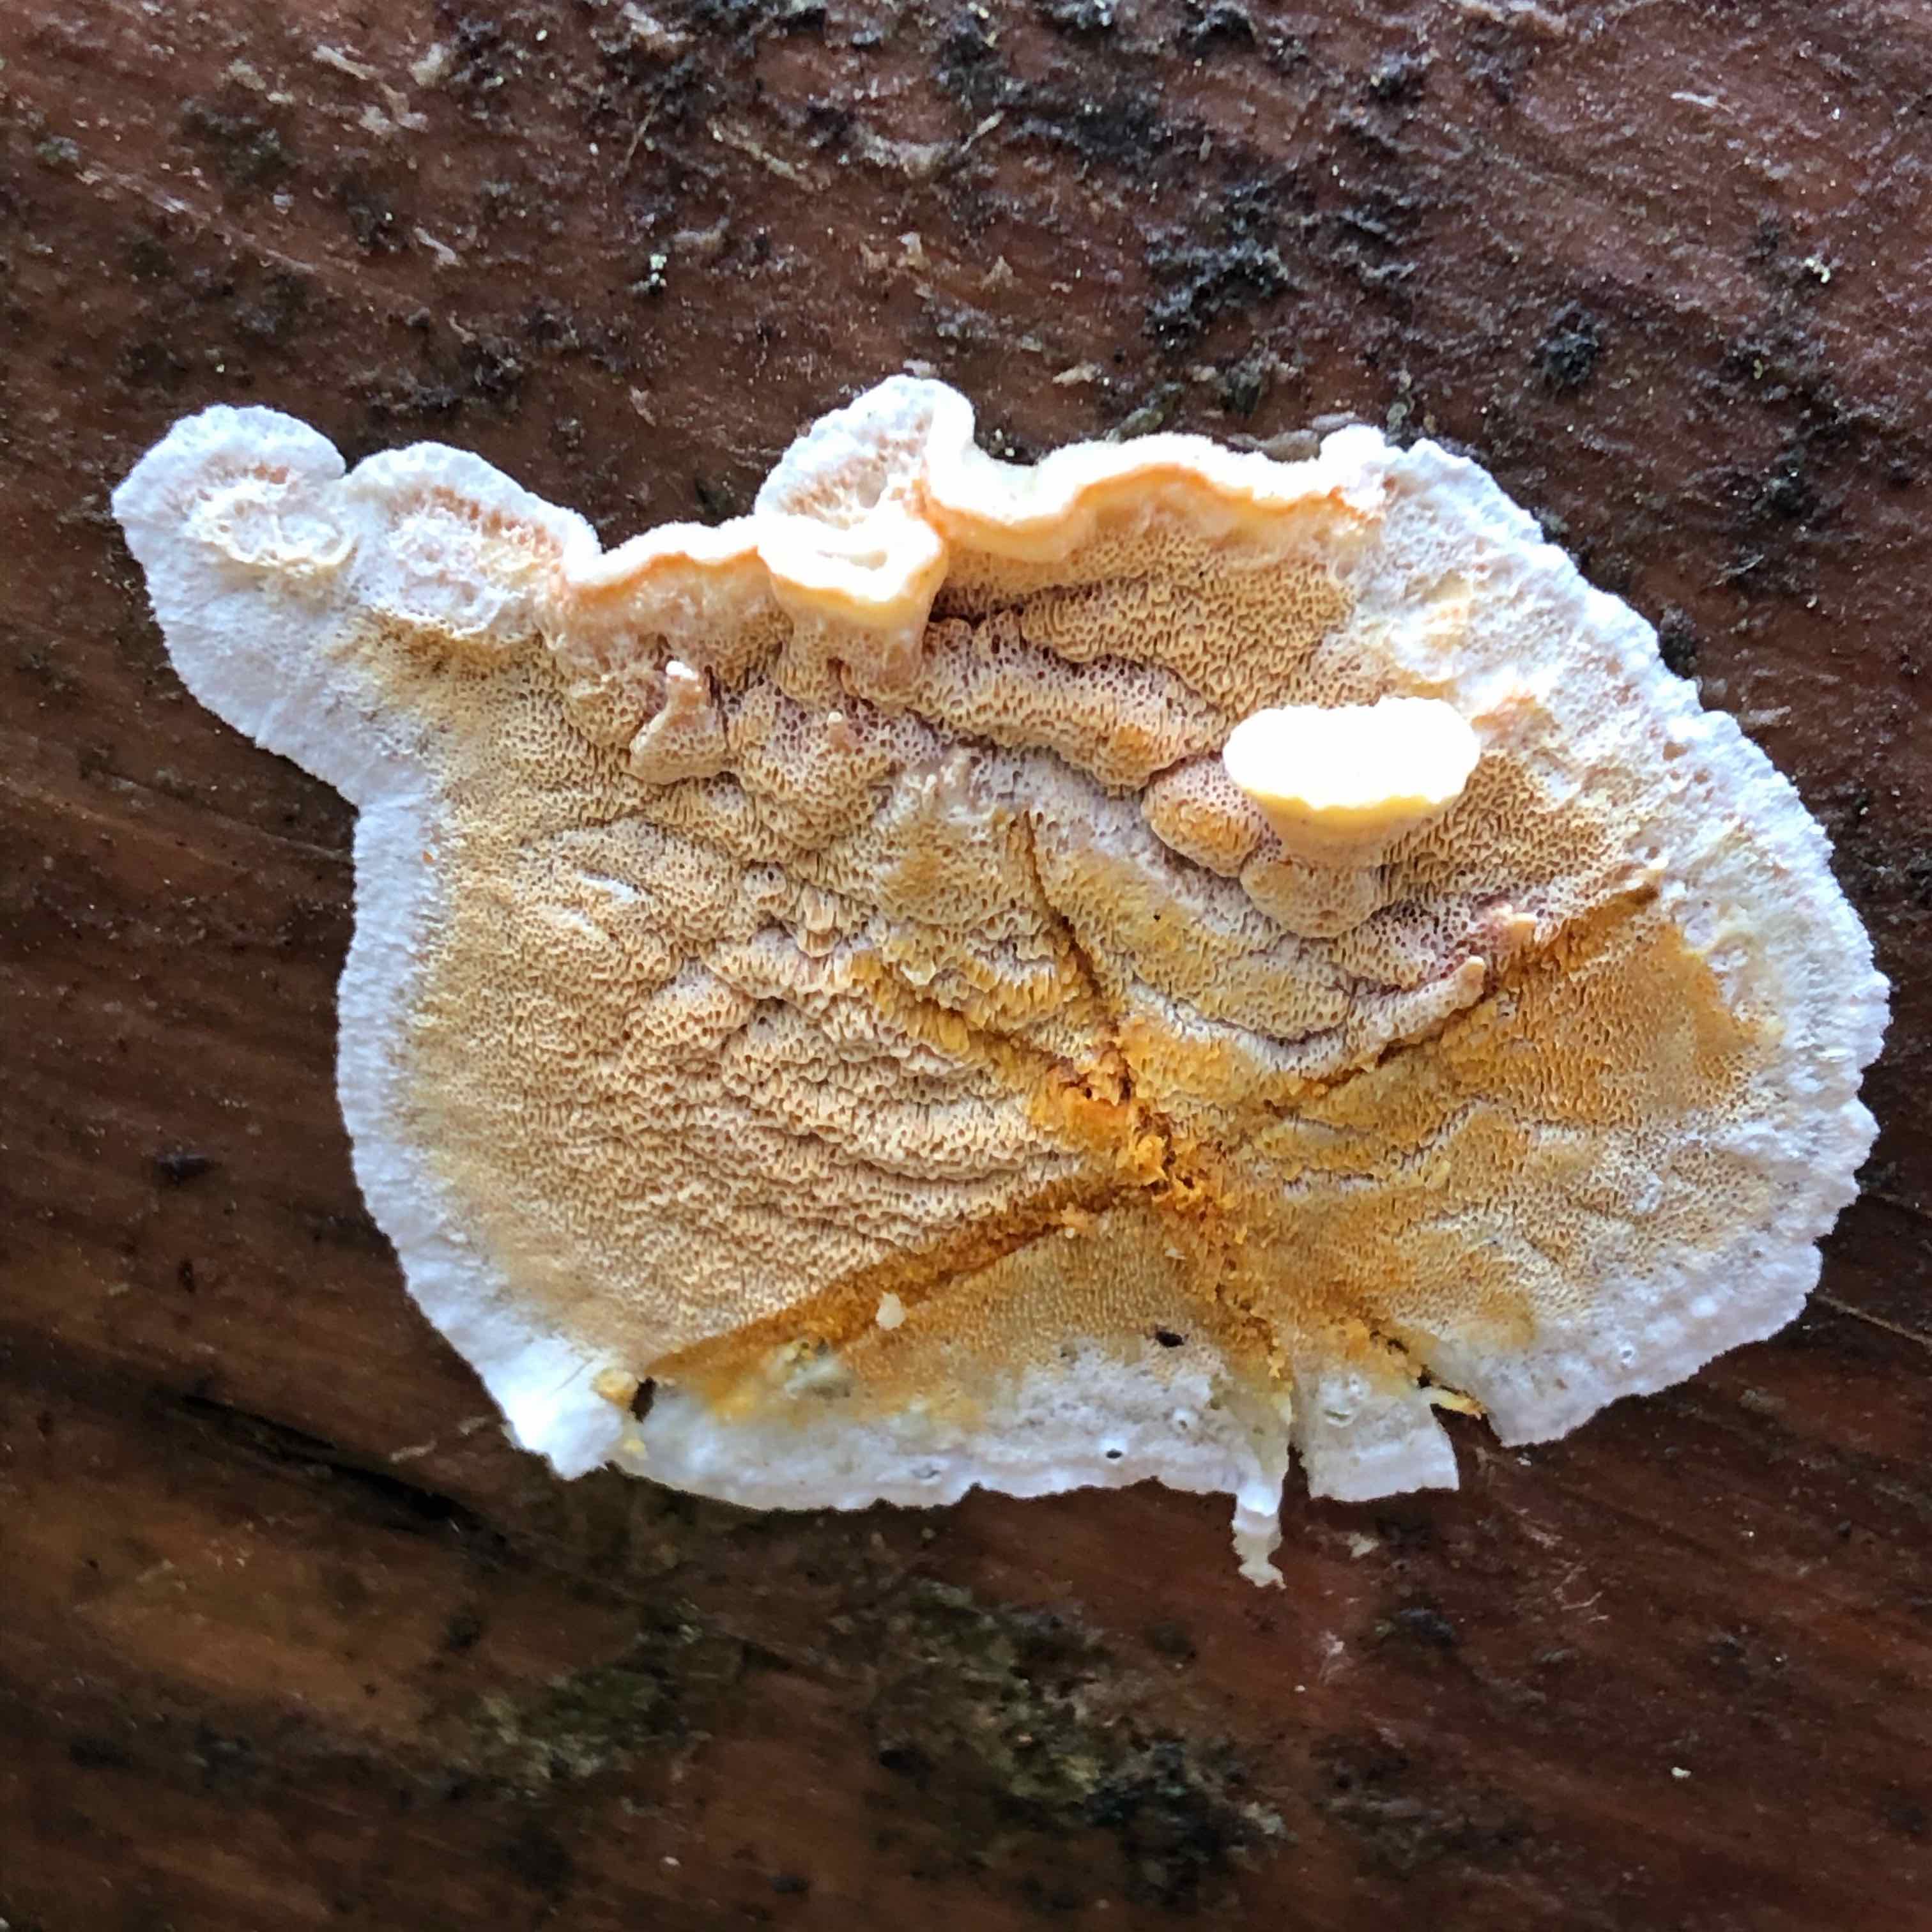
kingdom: Fungi
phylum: Basidiomycota
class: Agaricomycetes
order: Polyporales
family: Incrustoporiaceae
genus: Skeletocutis
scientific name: Skeletocutis amorpha
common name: orange krystalporesvamp
